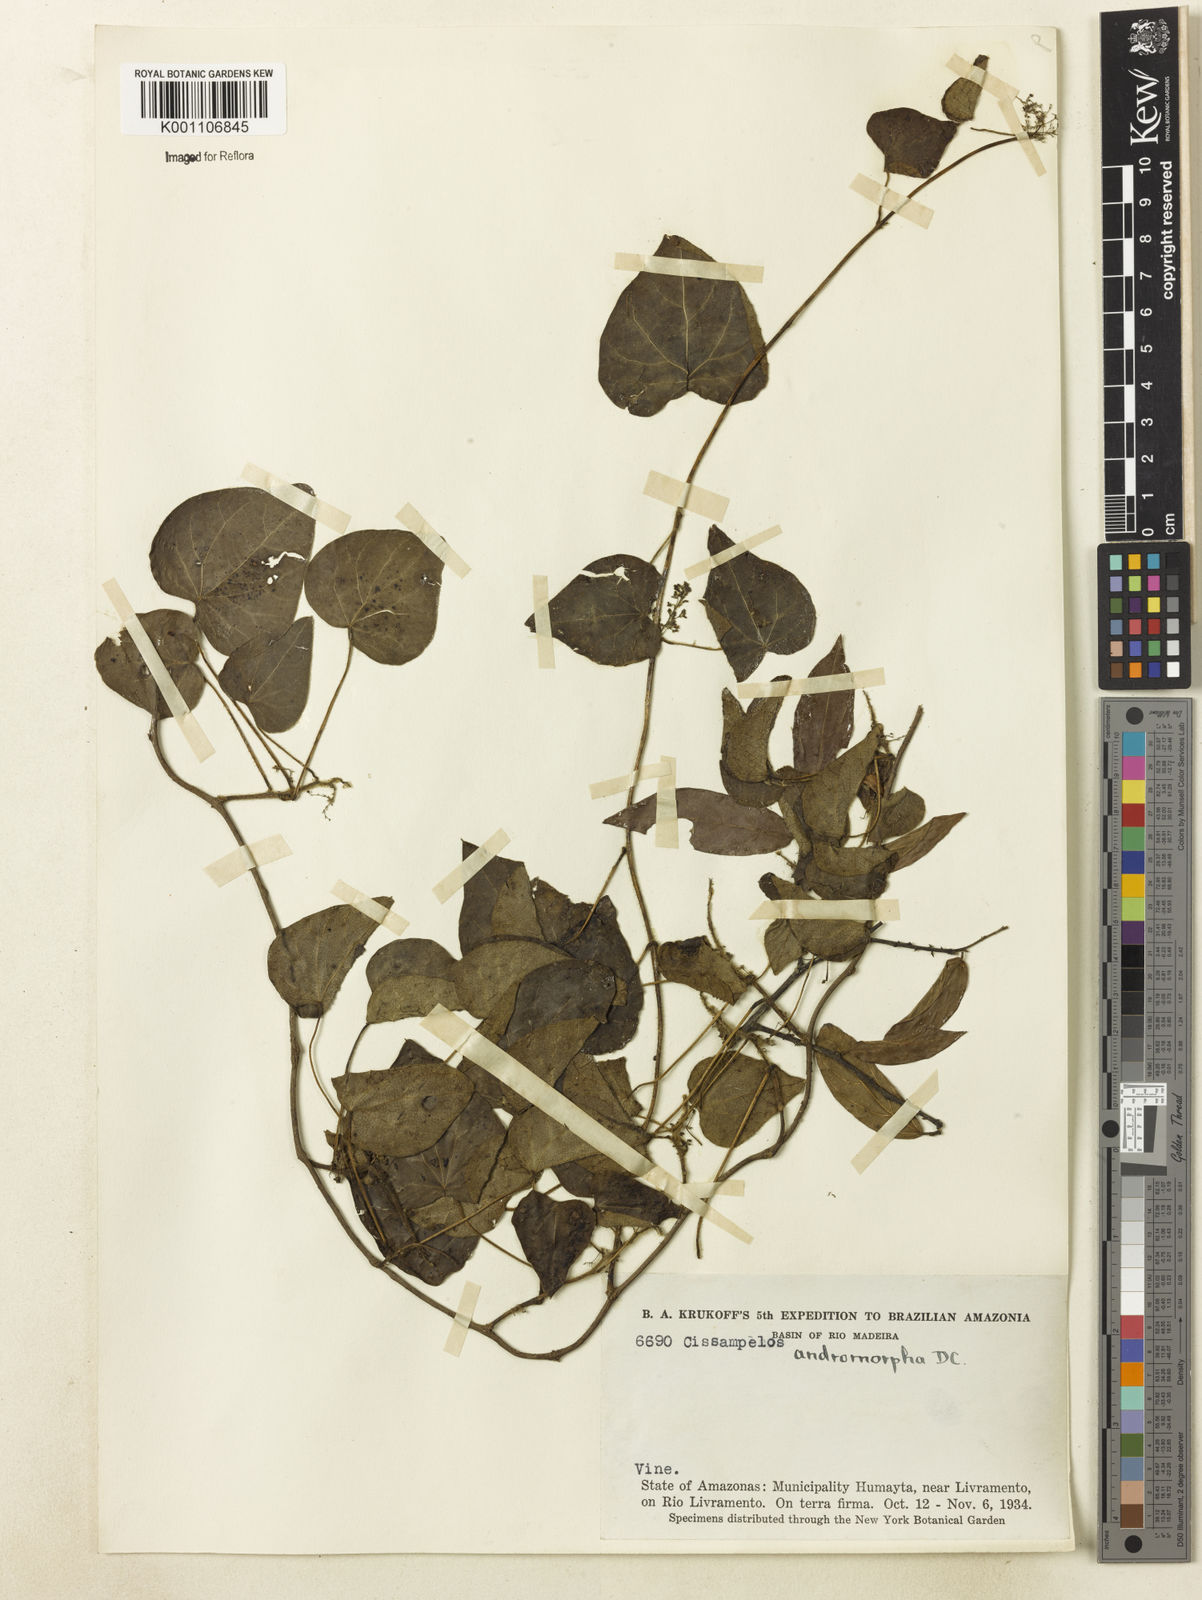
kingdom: Plantae
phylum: Tracheophyta
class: Magnoliopsida
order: Ranunculales
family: Menispermaceae
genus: Cissampelos
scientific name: Cissampelos andromorpha
